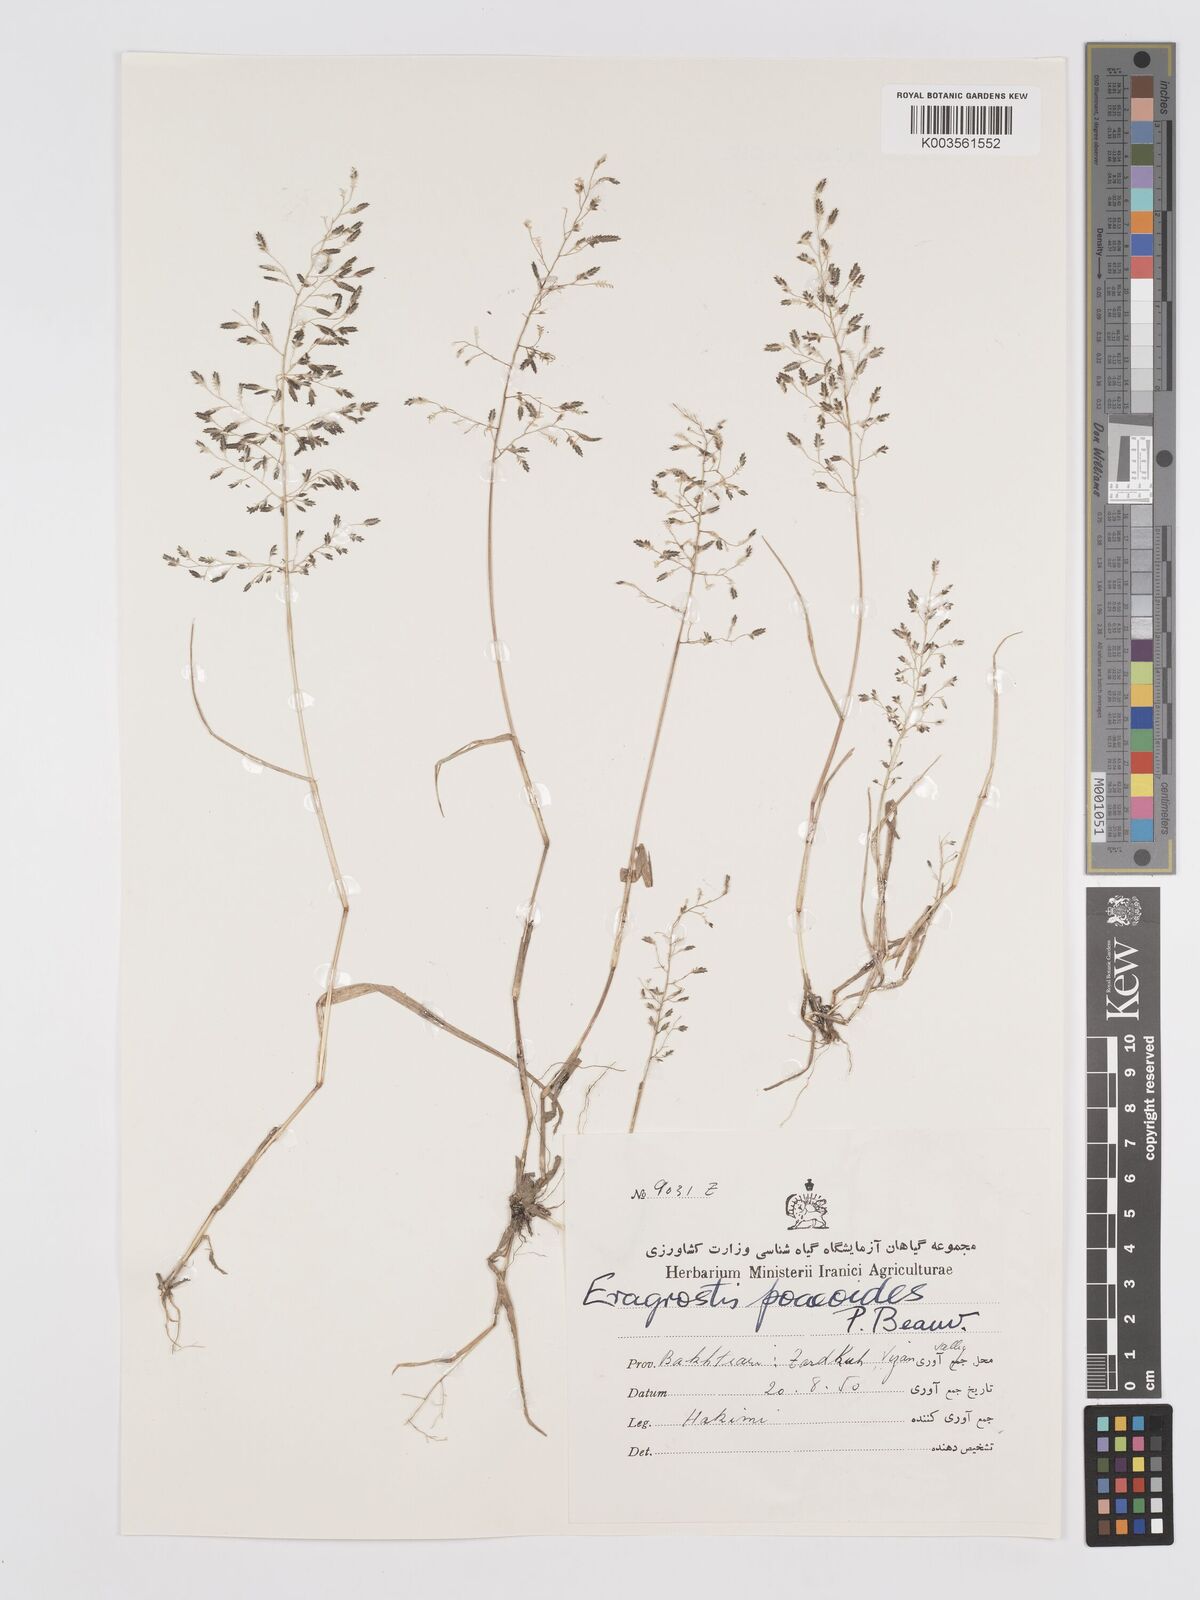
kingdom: Plantae
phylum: Tracheophyta
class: Liliopsida
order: Poales
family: Poaceae
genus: Eragrostis
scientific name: Eragrostis minor
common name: Small love-grass
